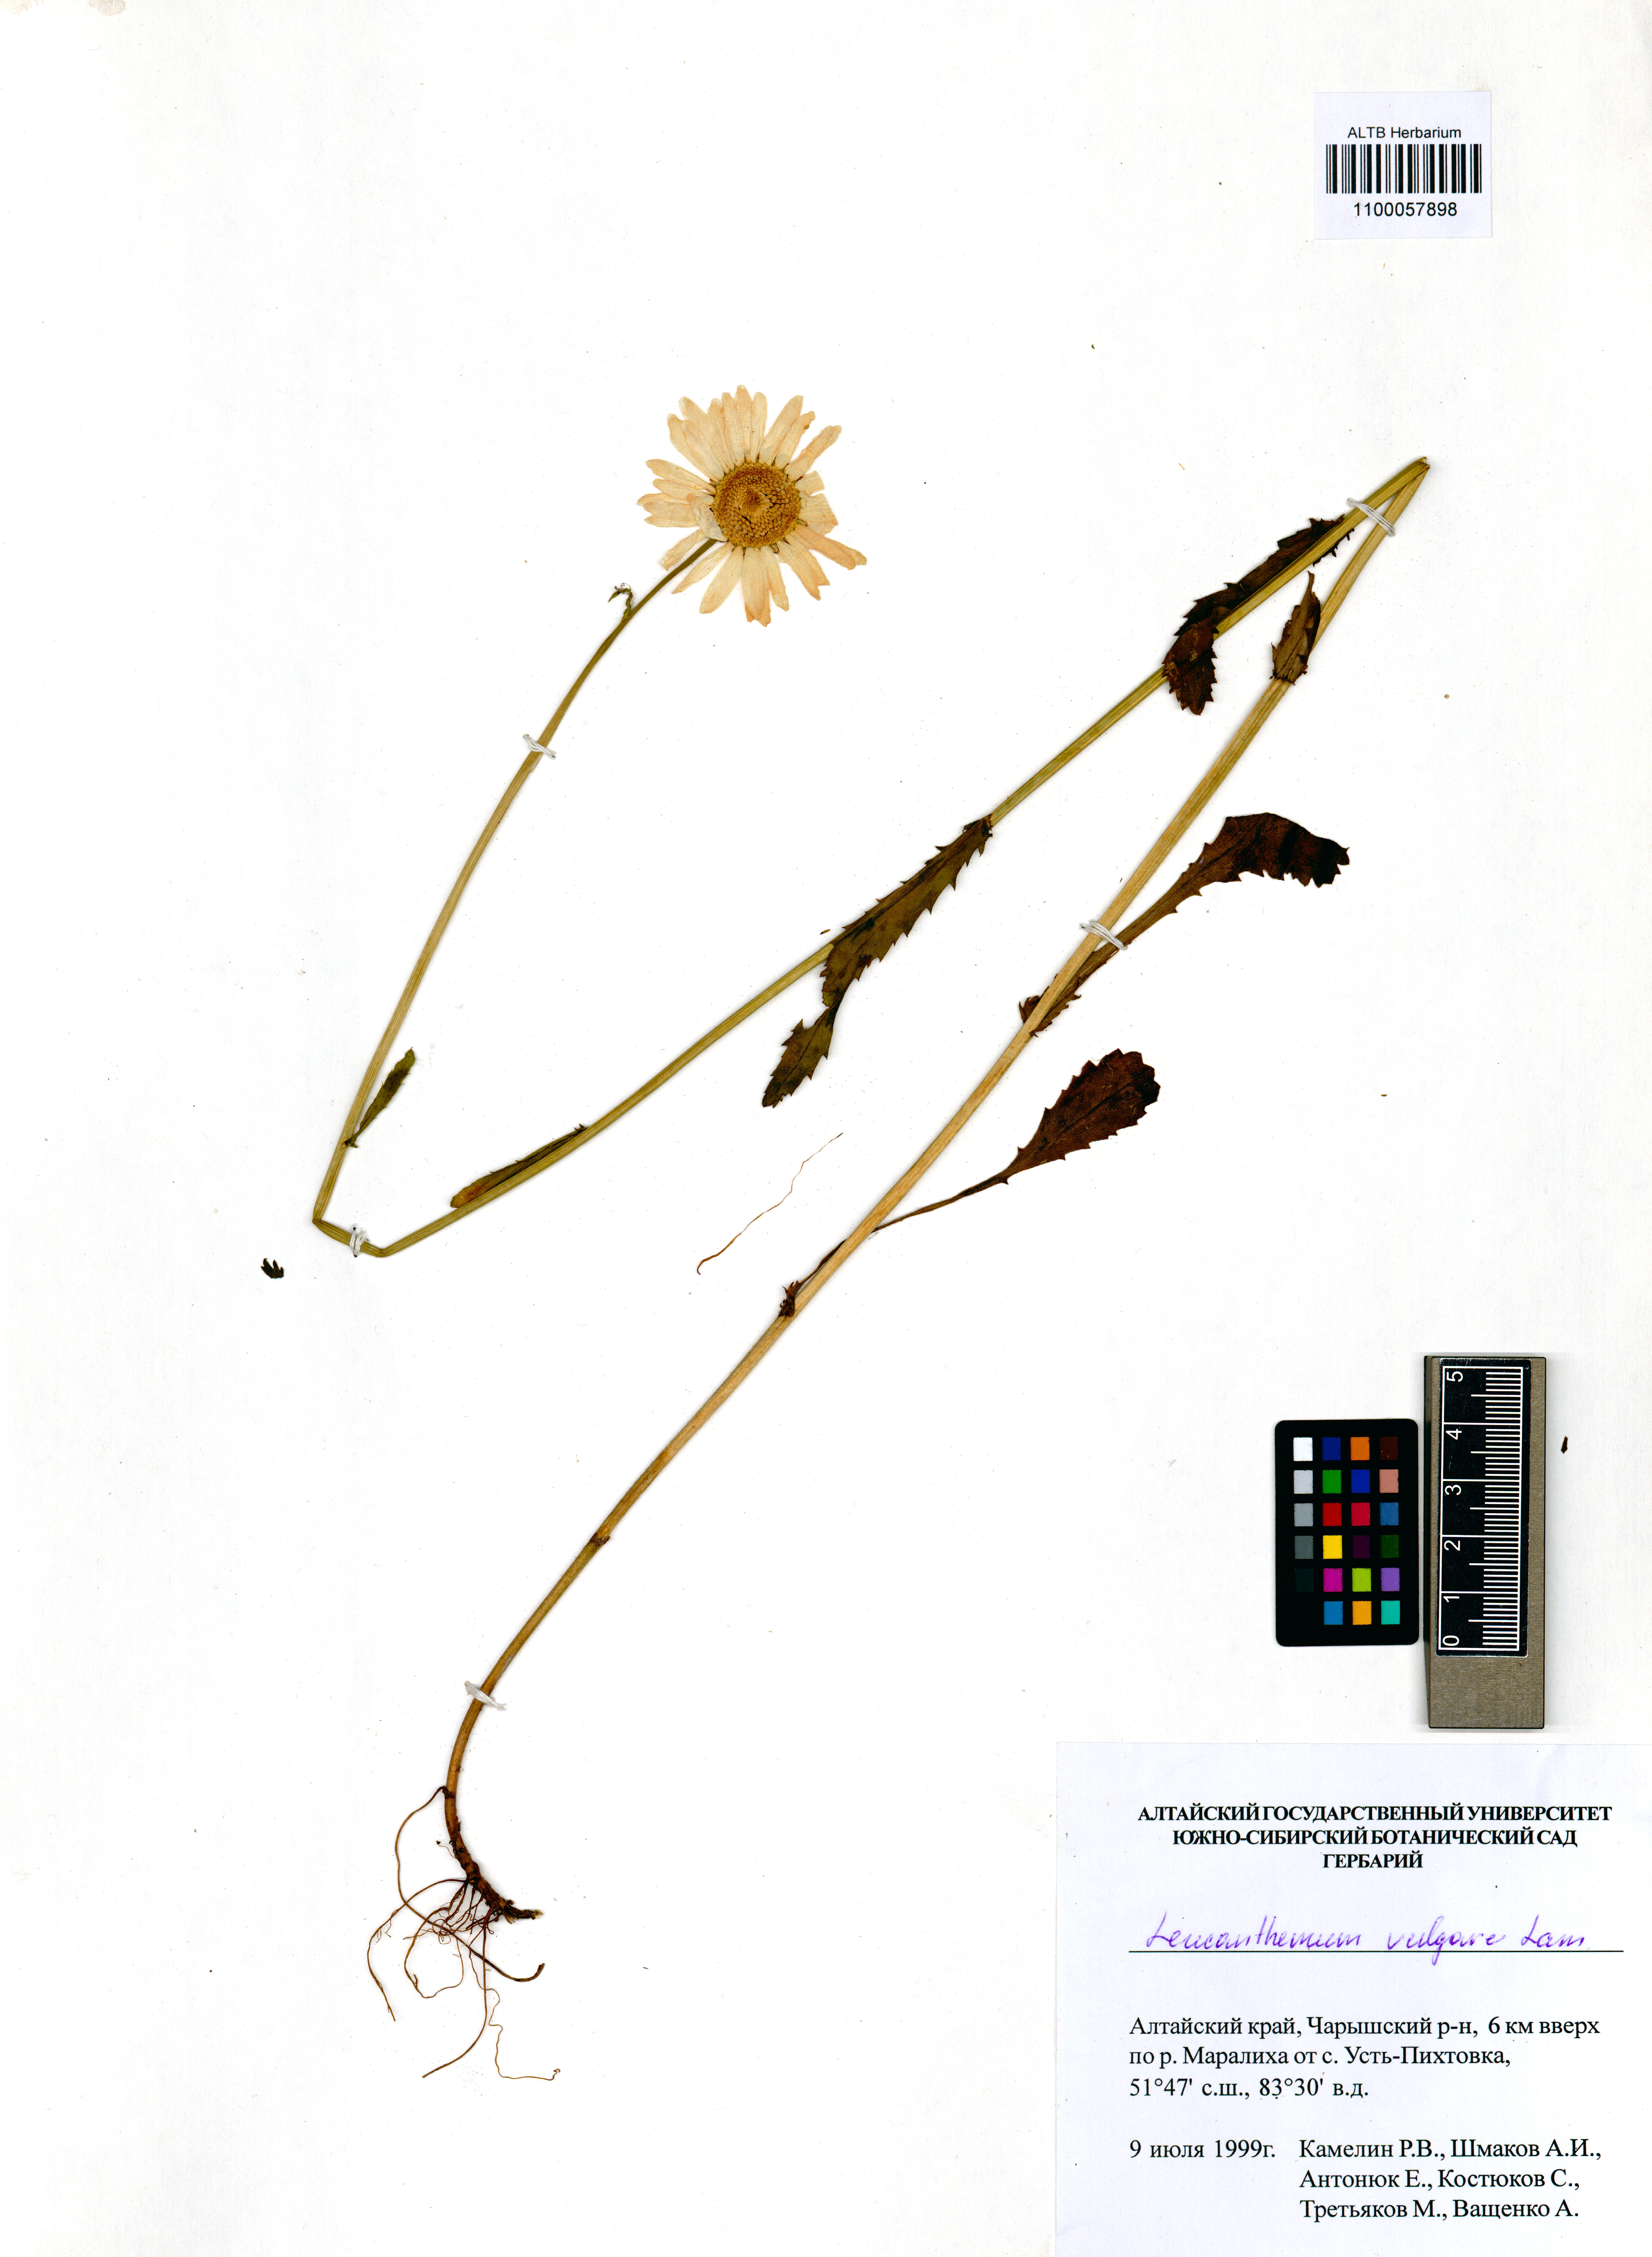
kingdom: Plantae
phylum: Tracheophyta
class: Magnoliopsida
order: Asterales
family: Asteraceae
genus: Leucanthemum
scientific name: Leucanthemum vulgare
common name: Oxeye daisy
